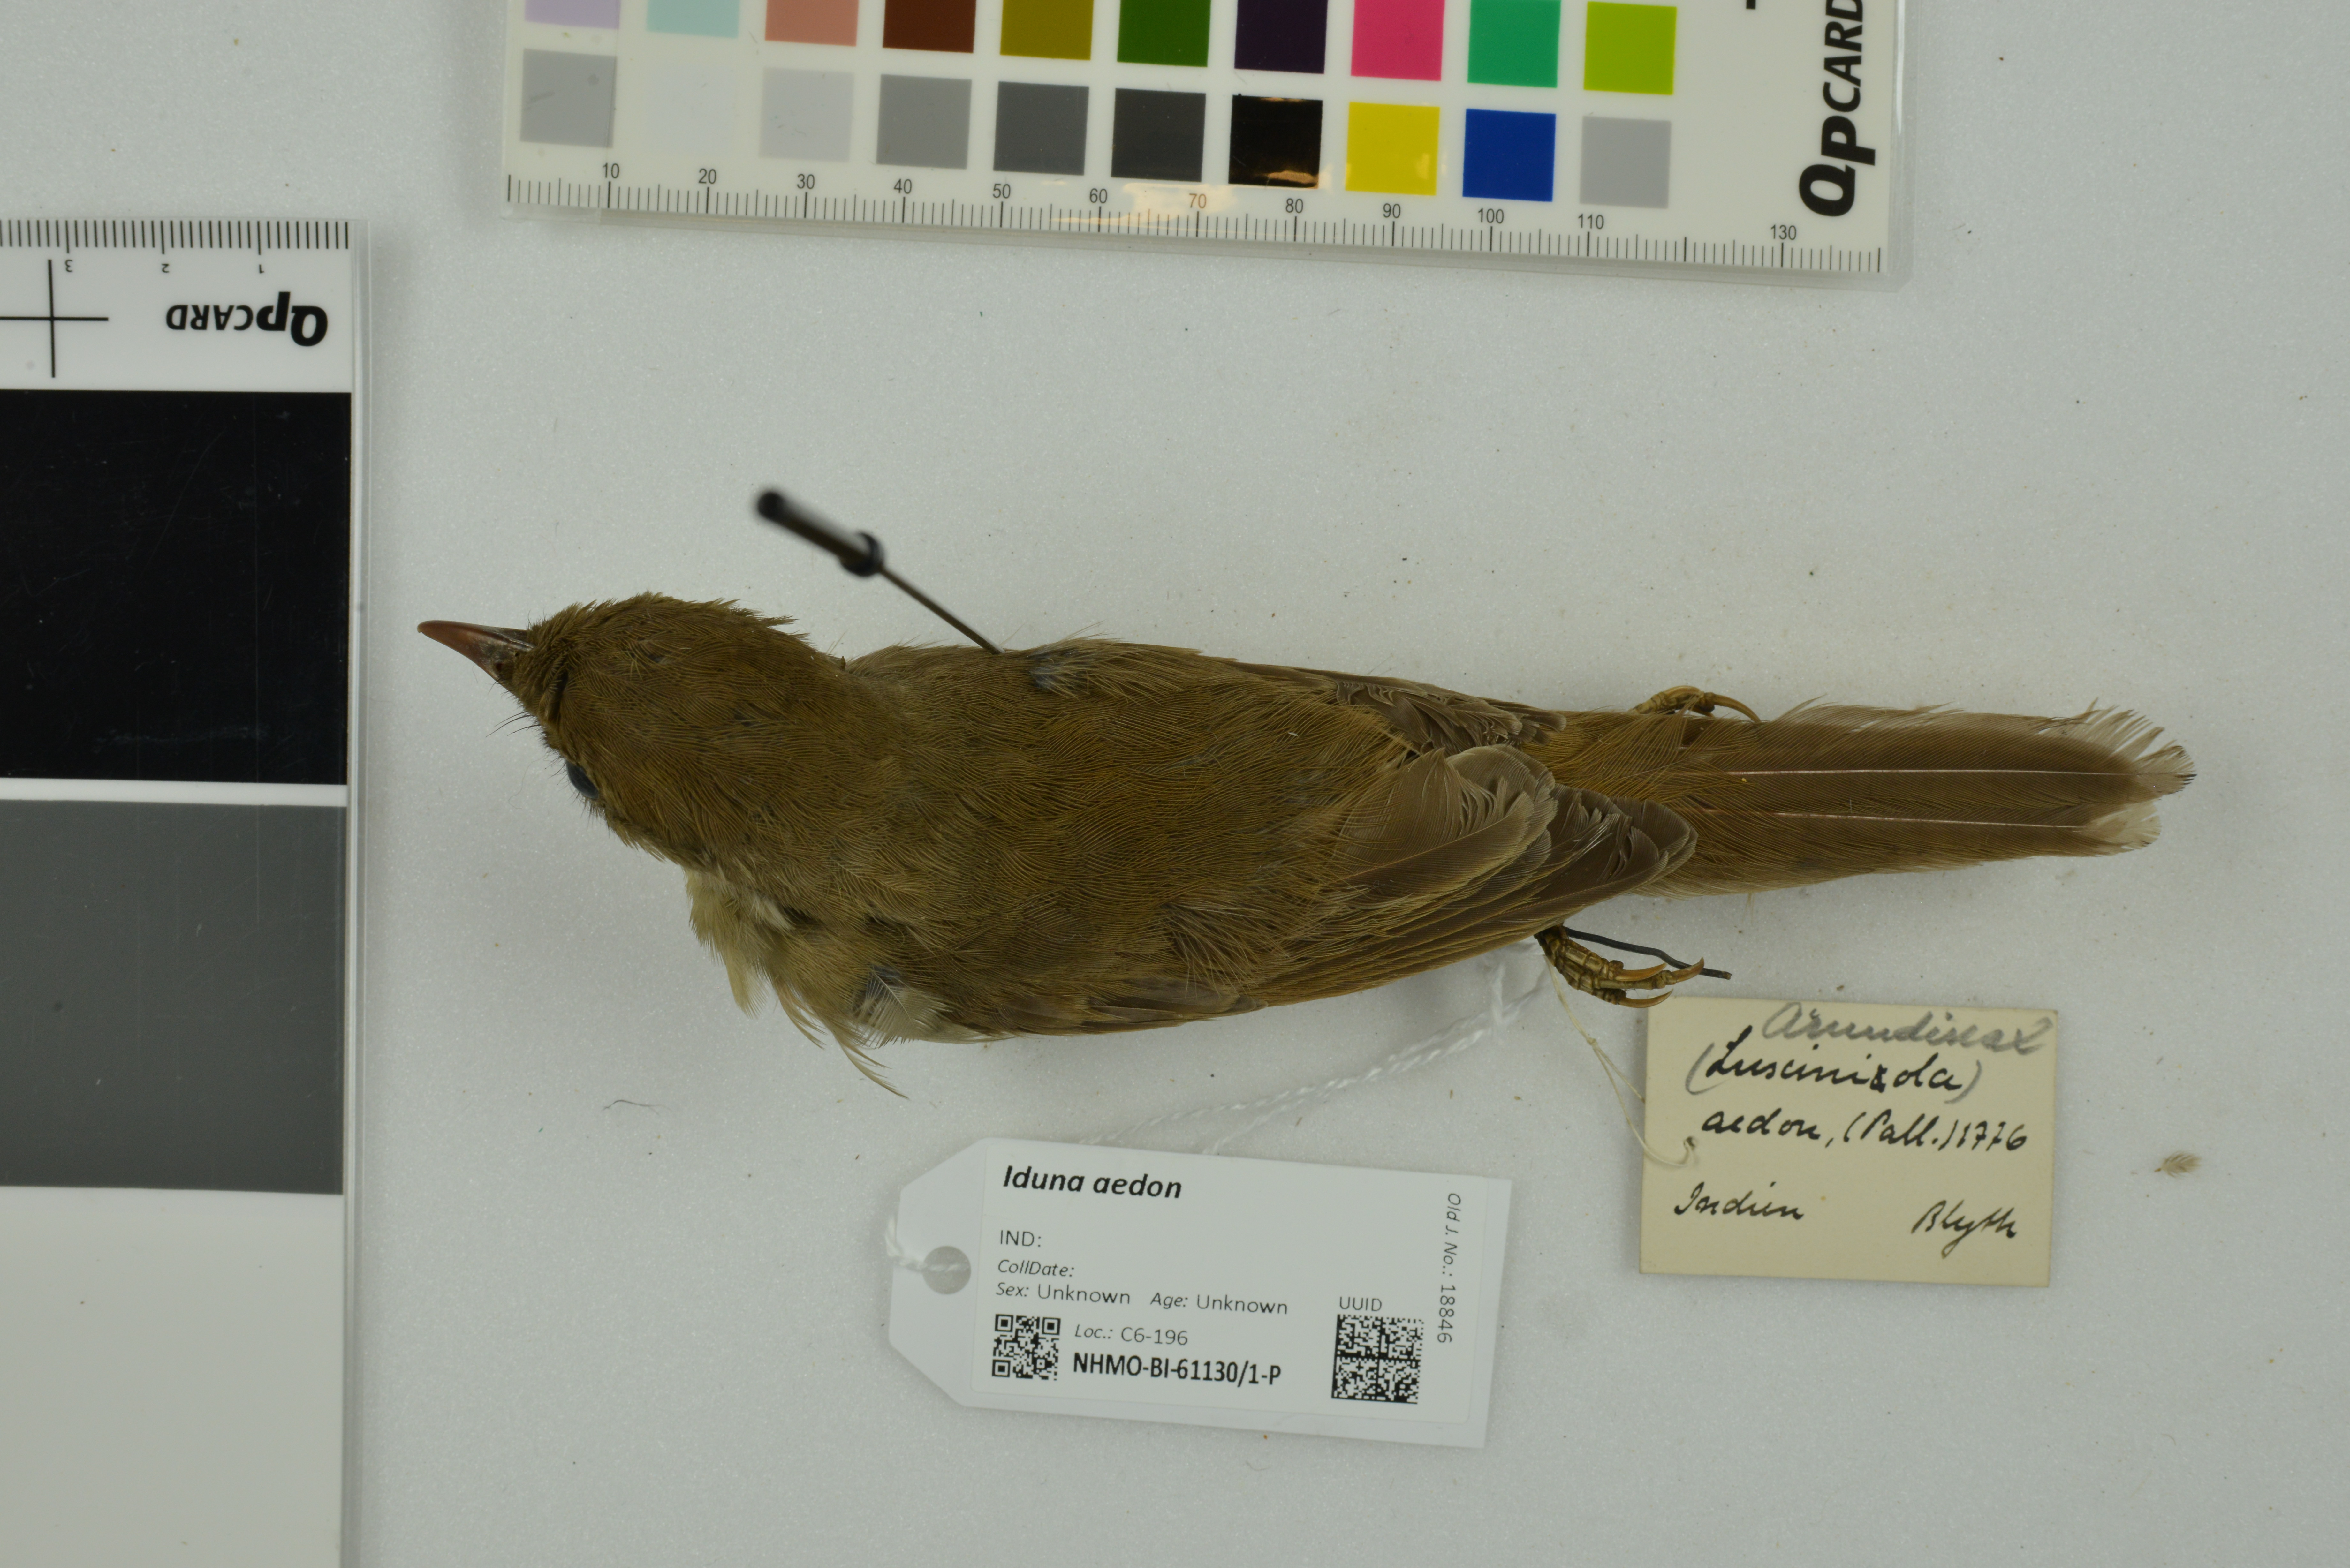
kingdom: Animalia
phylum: Chordata
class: Aves
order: Passeriformes
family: Acrocephalidae
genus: Iduna
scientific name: Iduna aedon
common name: Thick-billed warbler
